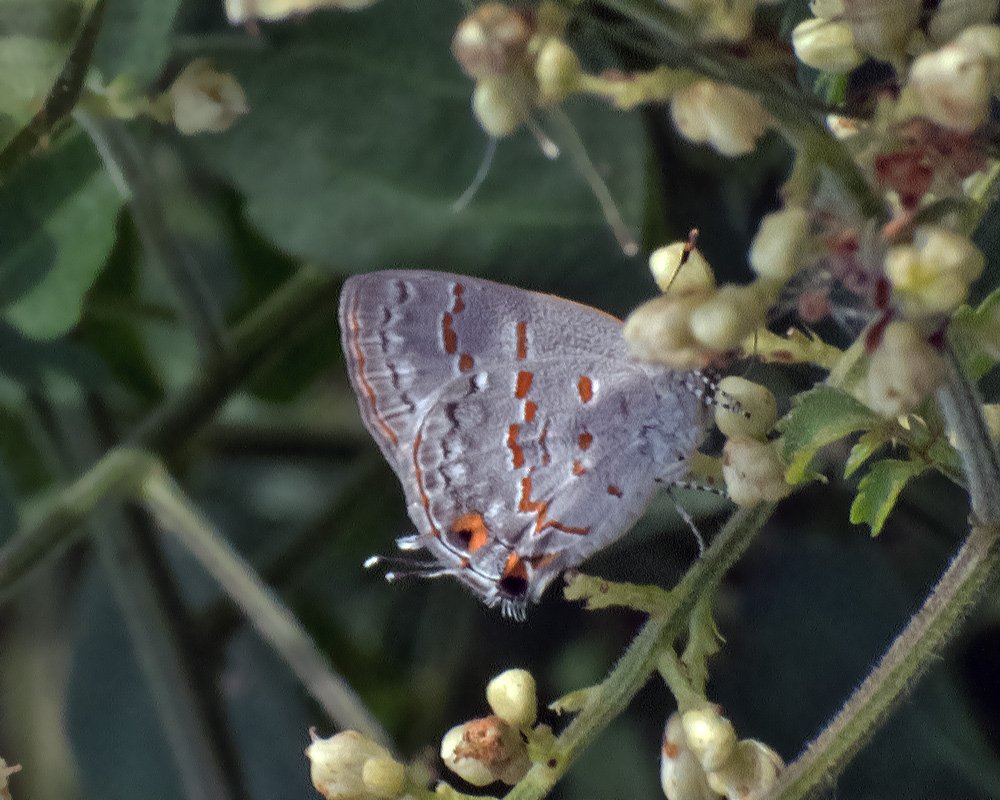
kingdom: Animalia
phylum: Arthropoda
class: Insecta
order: Lepidoptera
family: Lycaenidae
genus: Ministrymon
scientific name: Ministrymon clytie
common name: Clytie Ministreak
